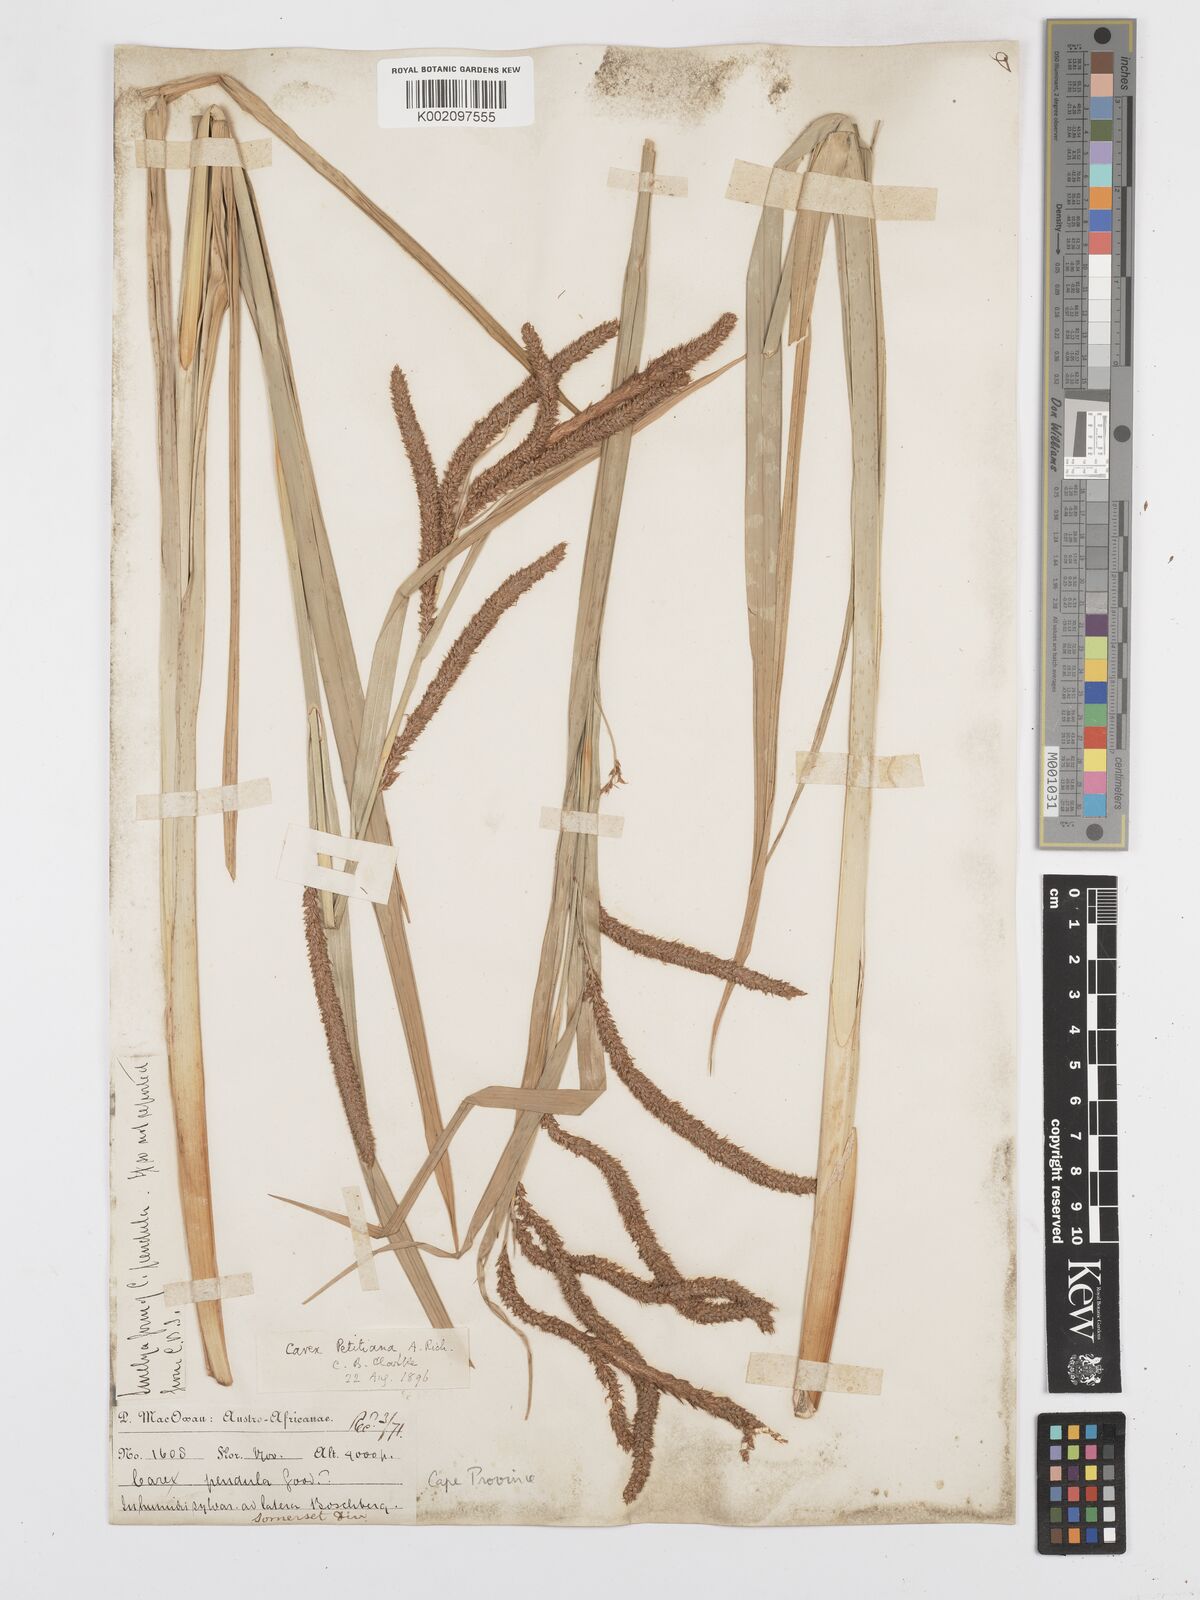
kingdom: Plantae
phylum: Tracheophyta
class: Liliopsida
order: Poales
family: Cyperaceae
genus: Carex
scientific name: Carex petitiana
